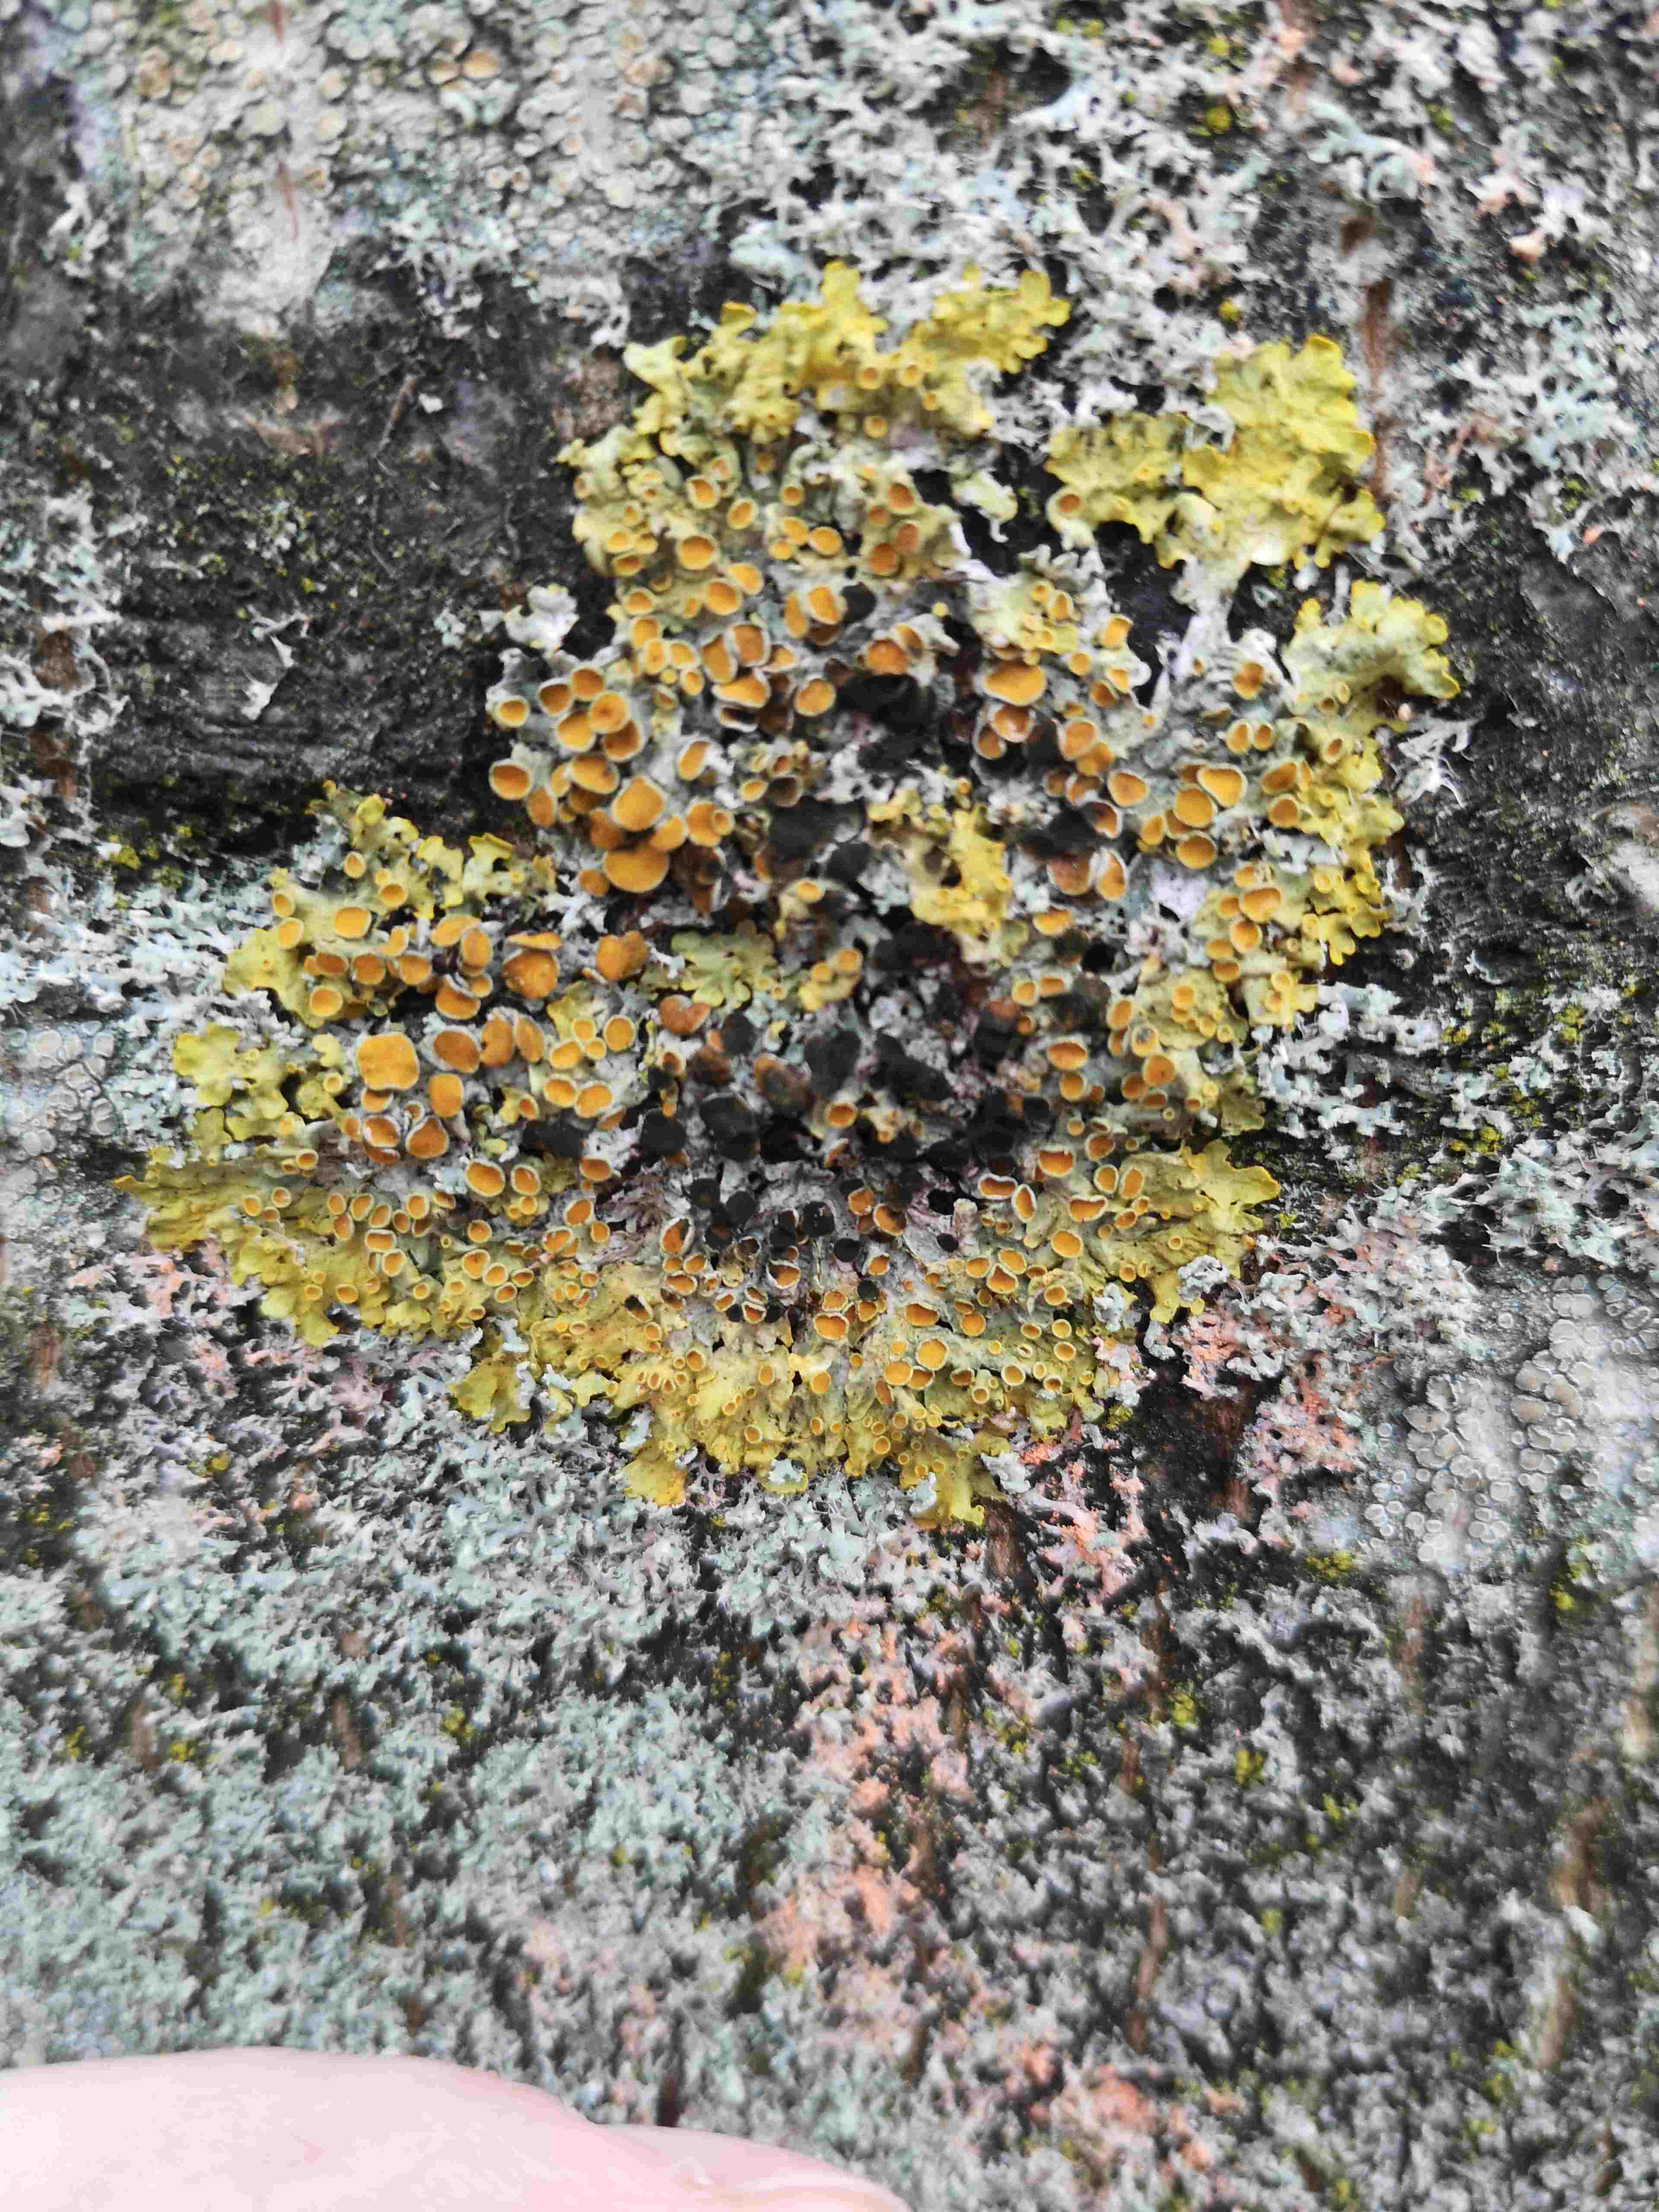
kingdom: Fungi
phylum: Ascomycota
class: Dothideomycetes
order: Mycosphaerellales
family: Teratosphaeriaceae
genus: Xanthoriicola
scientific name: Xanthoriicola physciae
